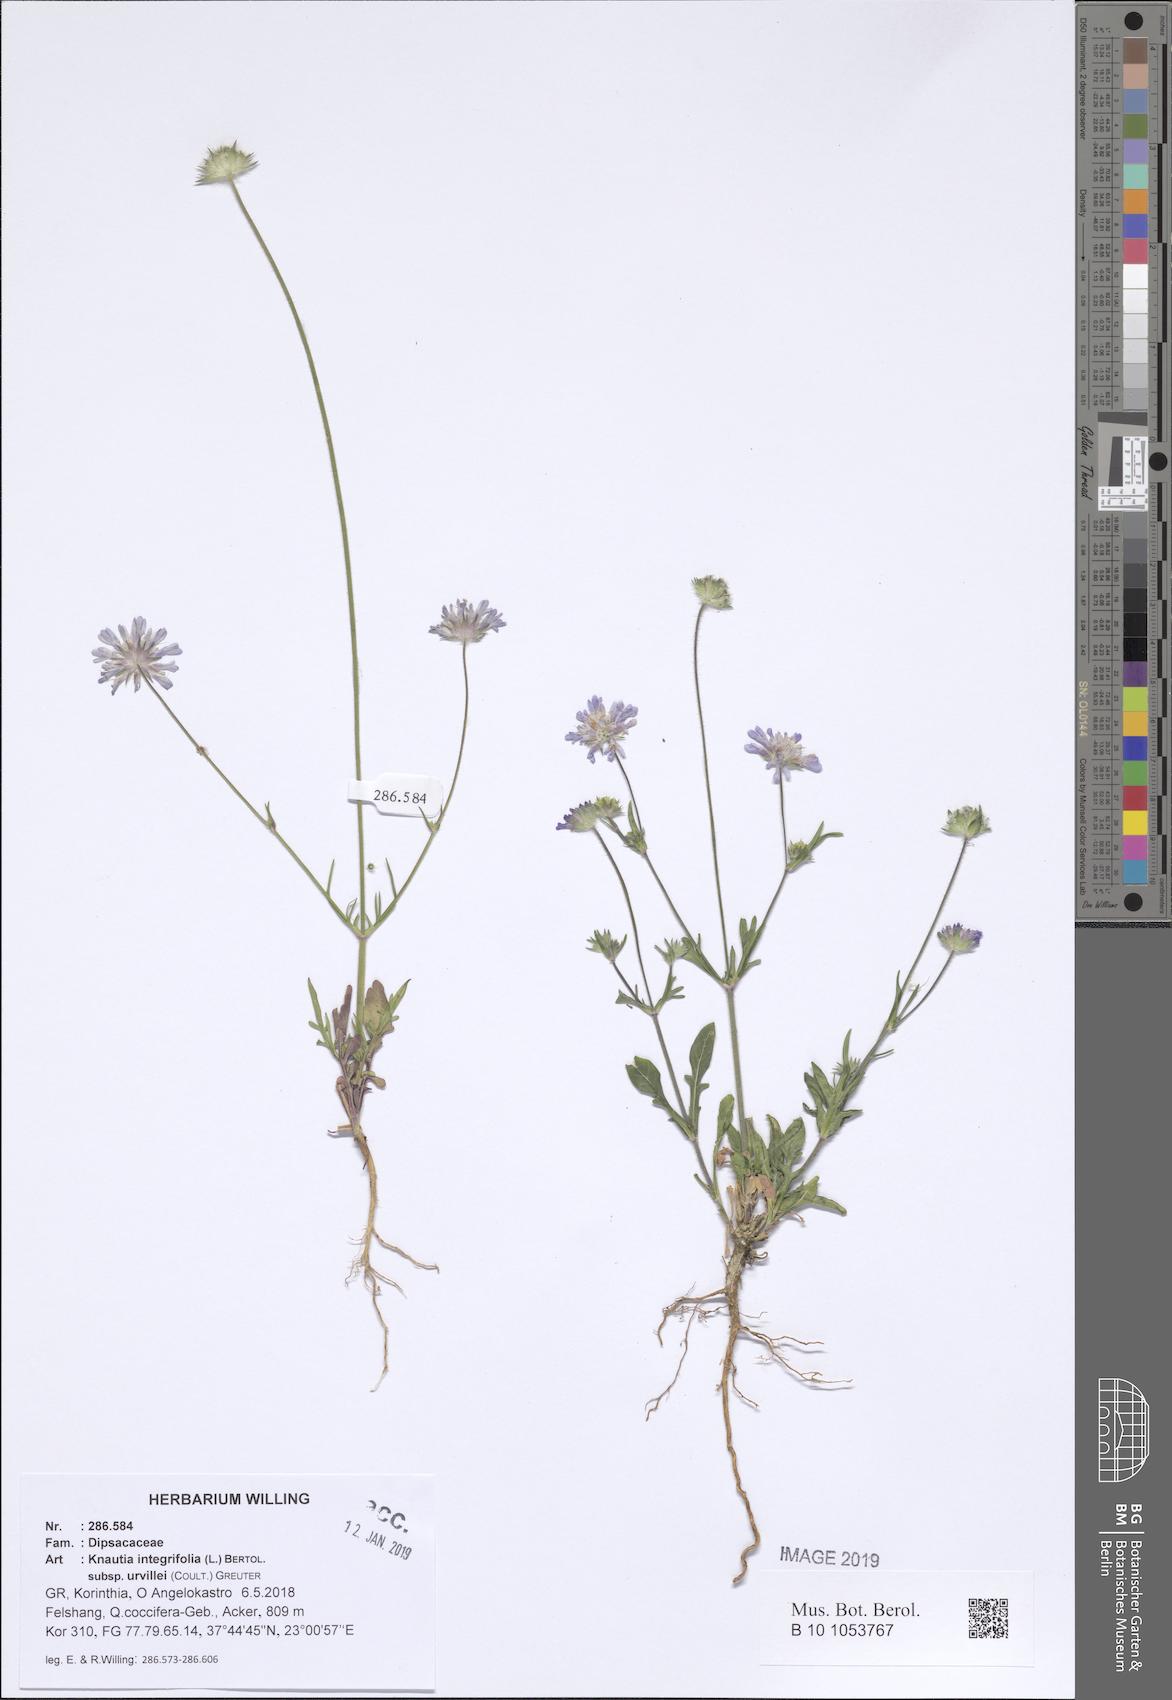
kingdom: Plantae
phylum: Tracheophyta
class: Magnoliopsida
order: Dipsacales
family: Caprifoliaceae
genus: Knautia
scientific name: Knautia integrifolia
